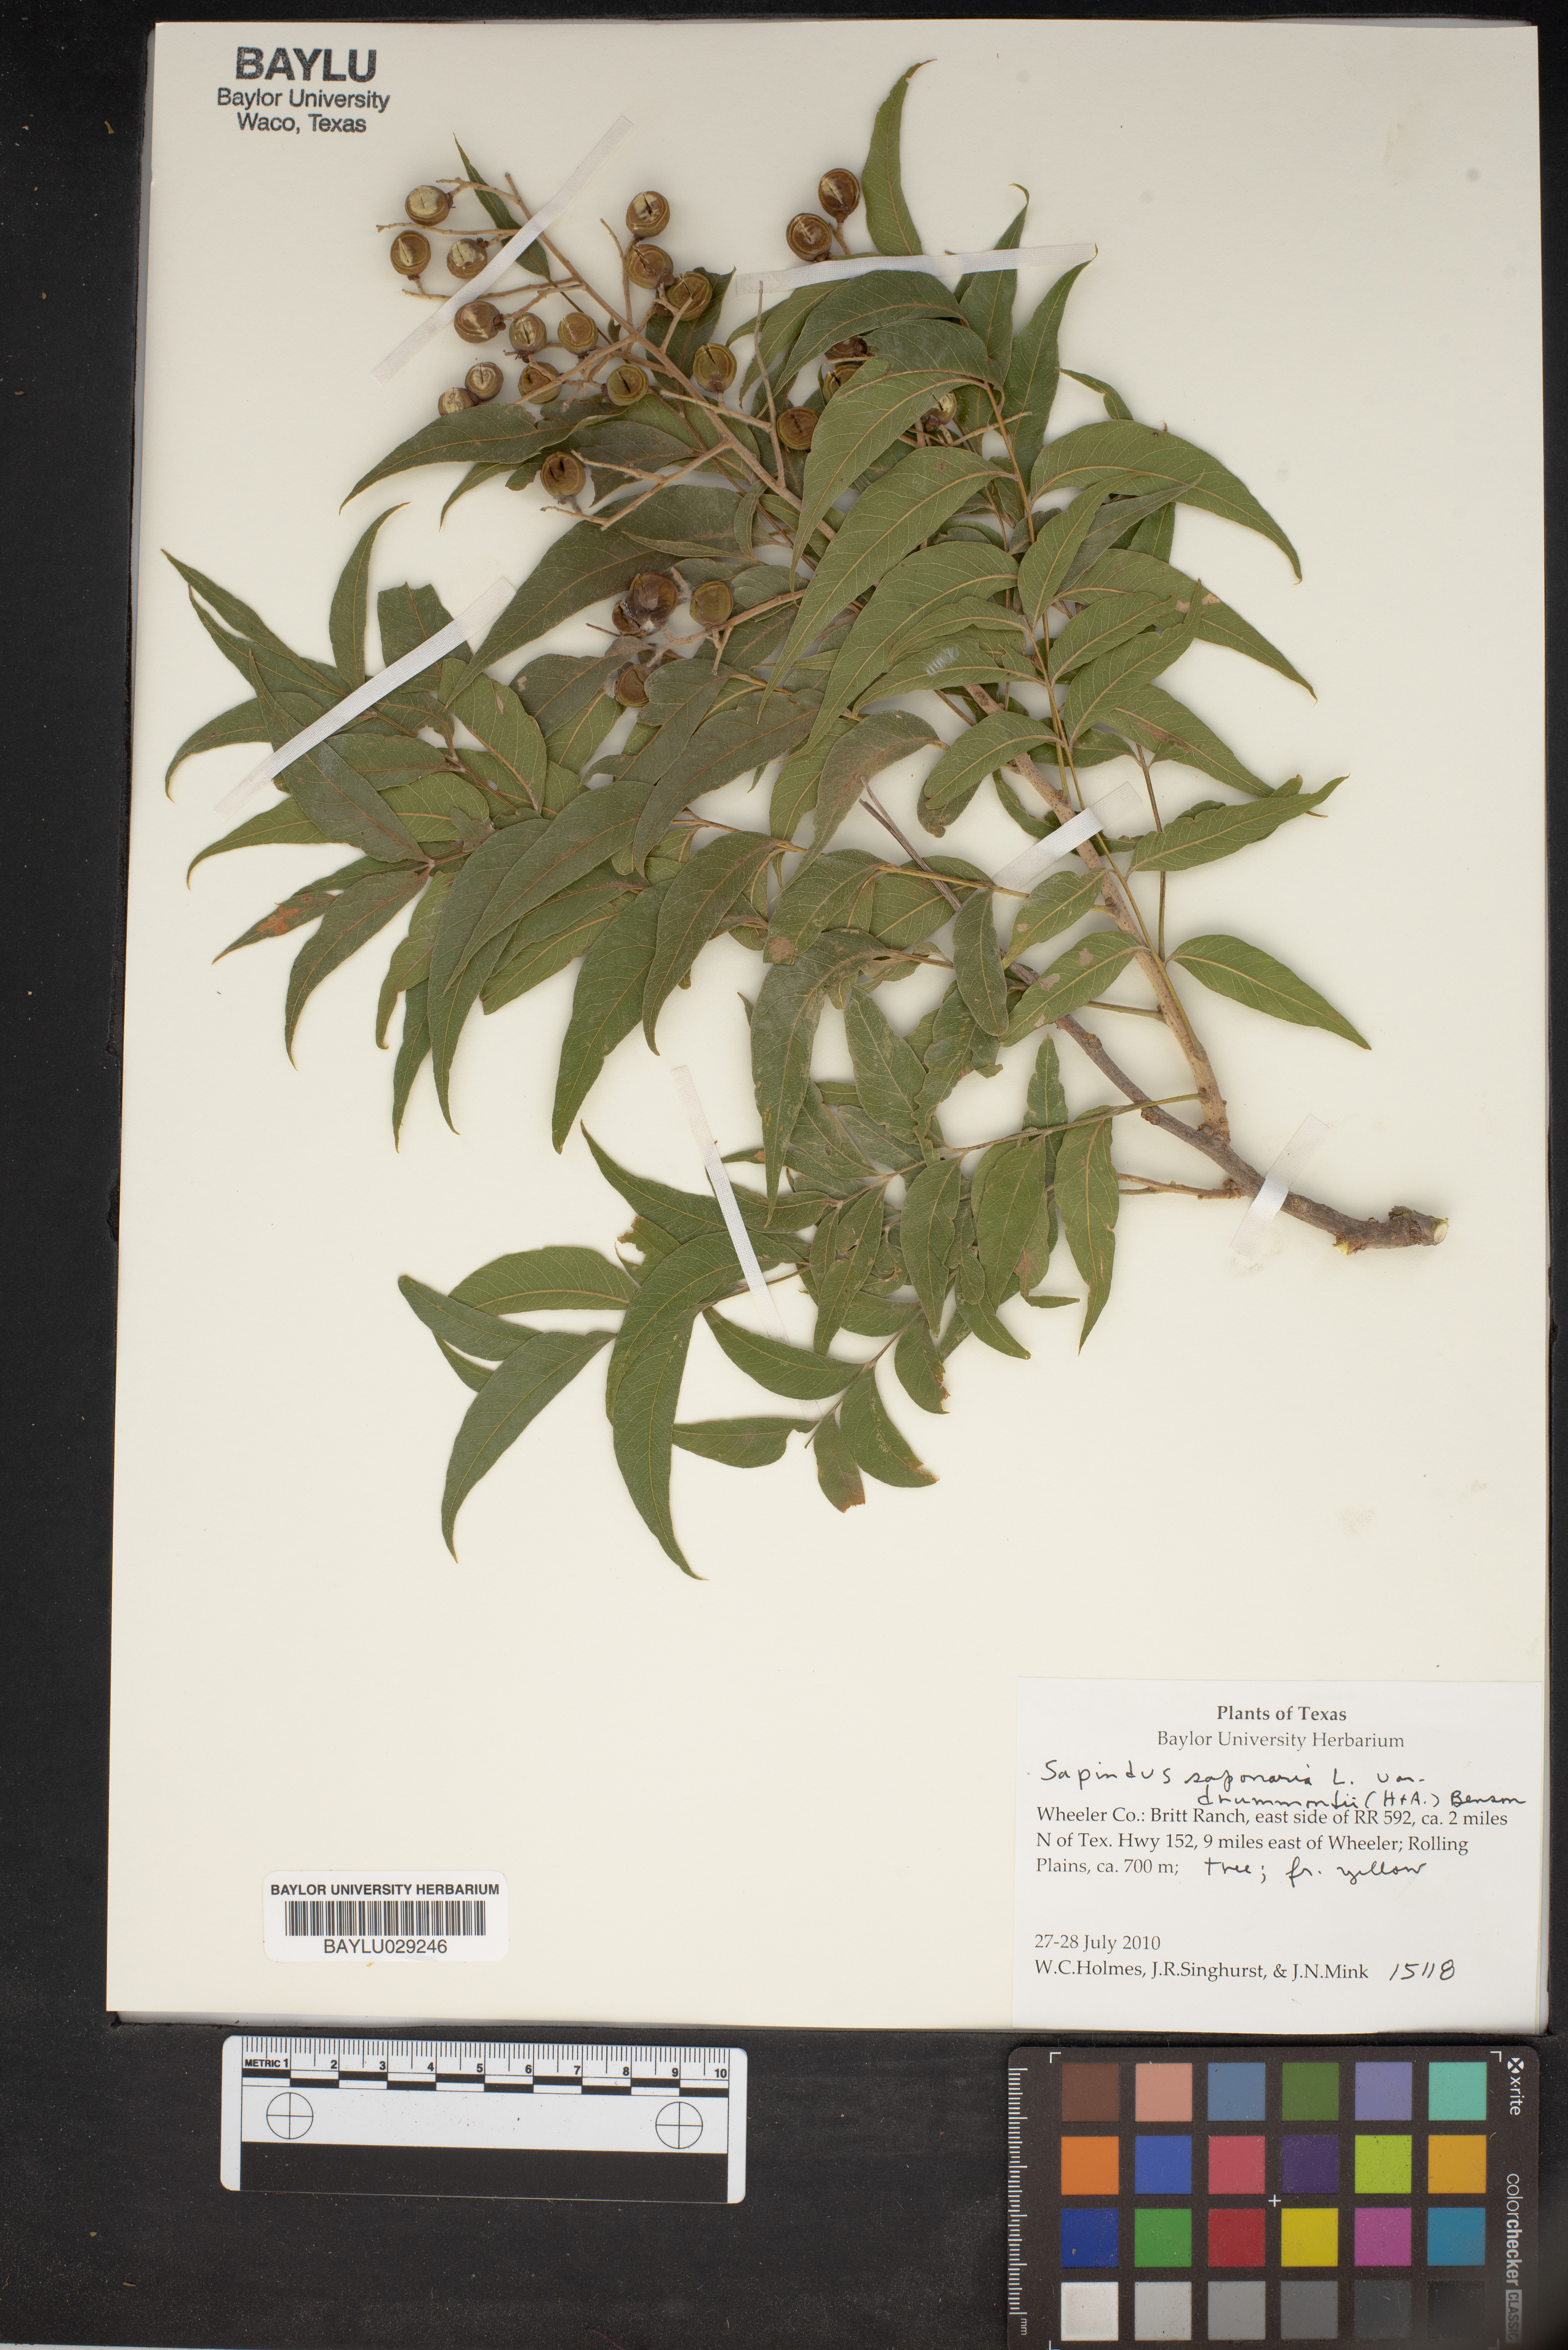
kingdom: Plantae
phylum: Tracheophyta
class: Magnoliopsida
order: Sapindales
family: Sapindaceae
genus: Sapindus
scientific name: Sapindus drummondii
